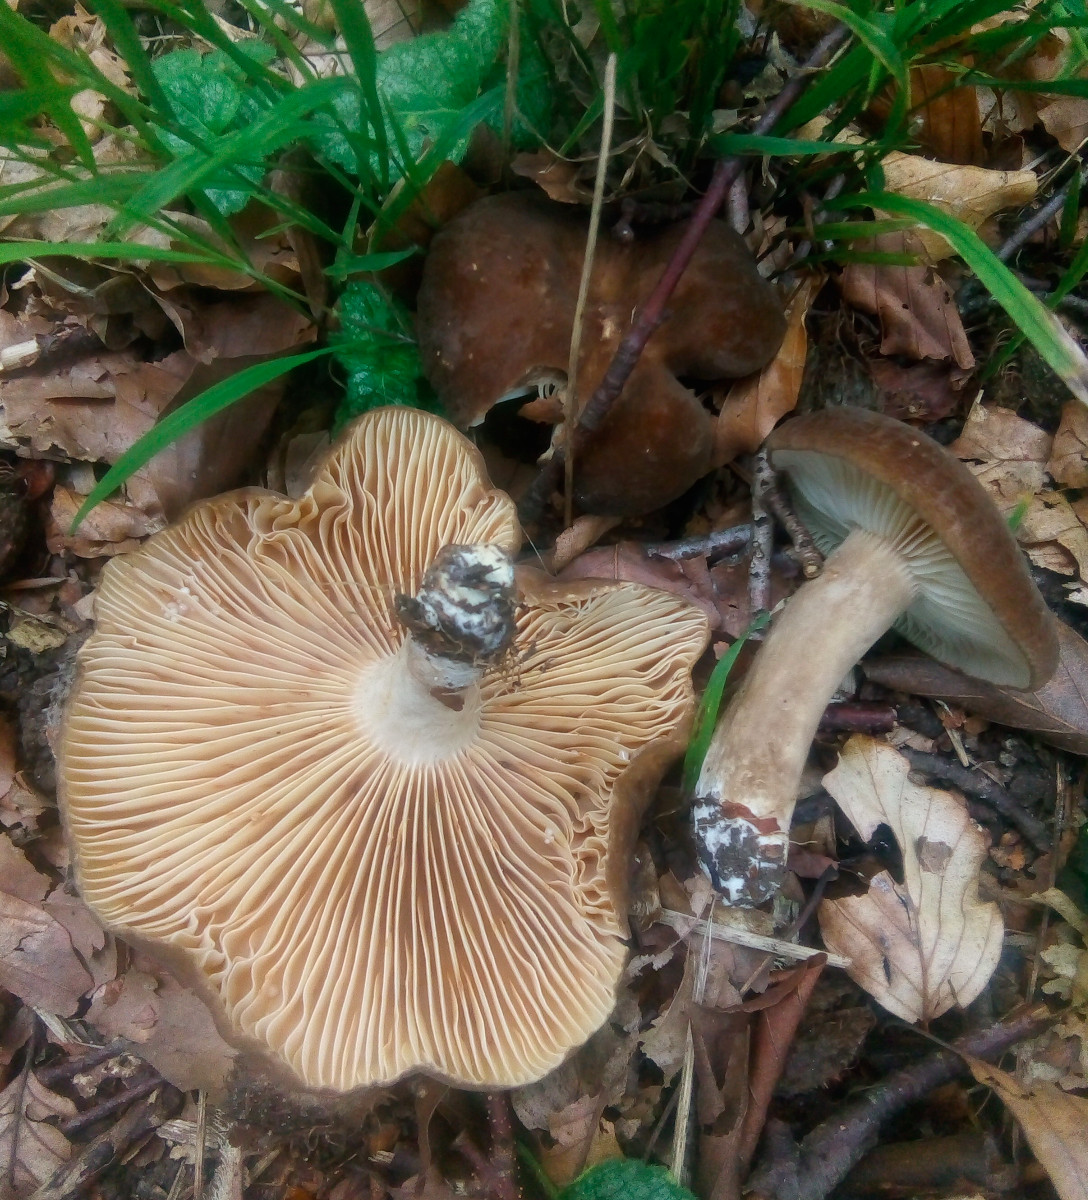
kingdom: Fungi
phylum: Basidiomycota
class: Agaricomycetes
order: Russulales
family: Russulaceae
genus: Lactarius
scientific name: Lactarius romagnesii
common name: fjernbladet mælkehat
